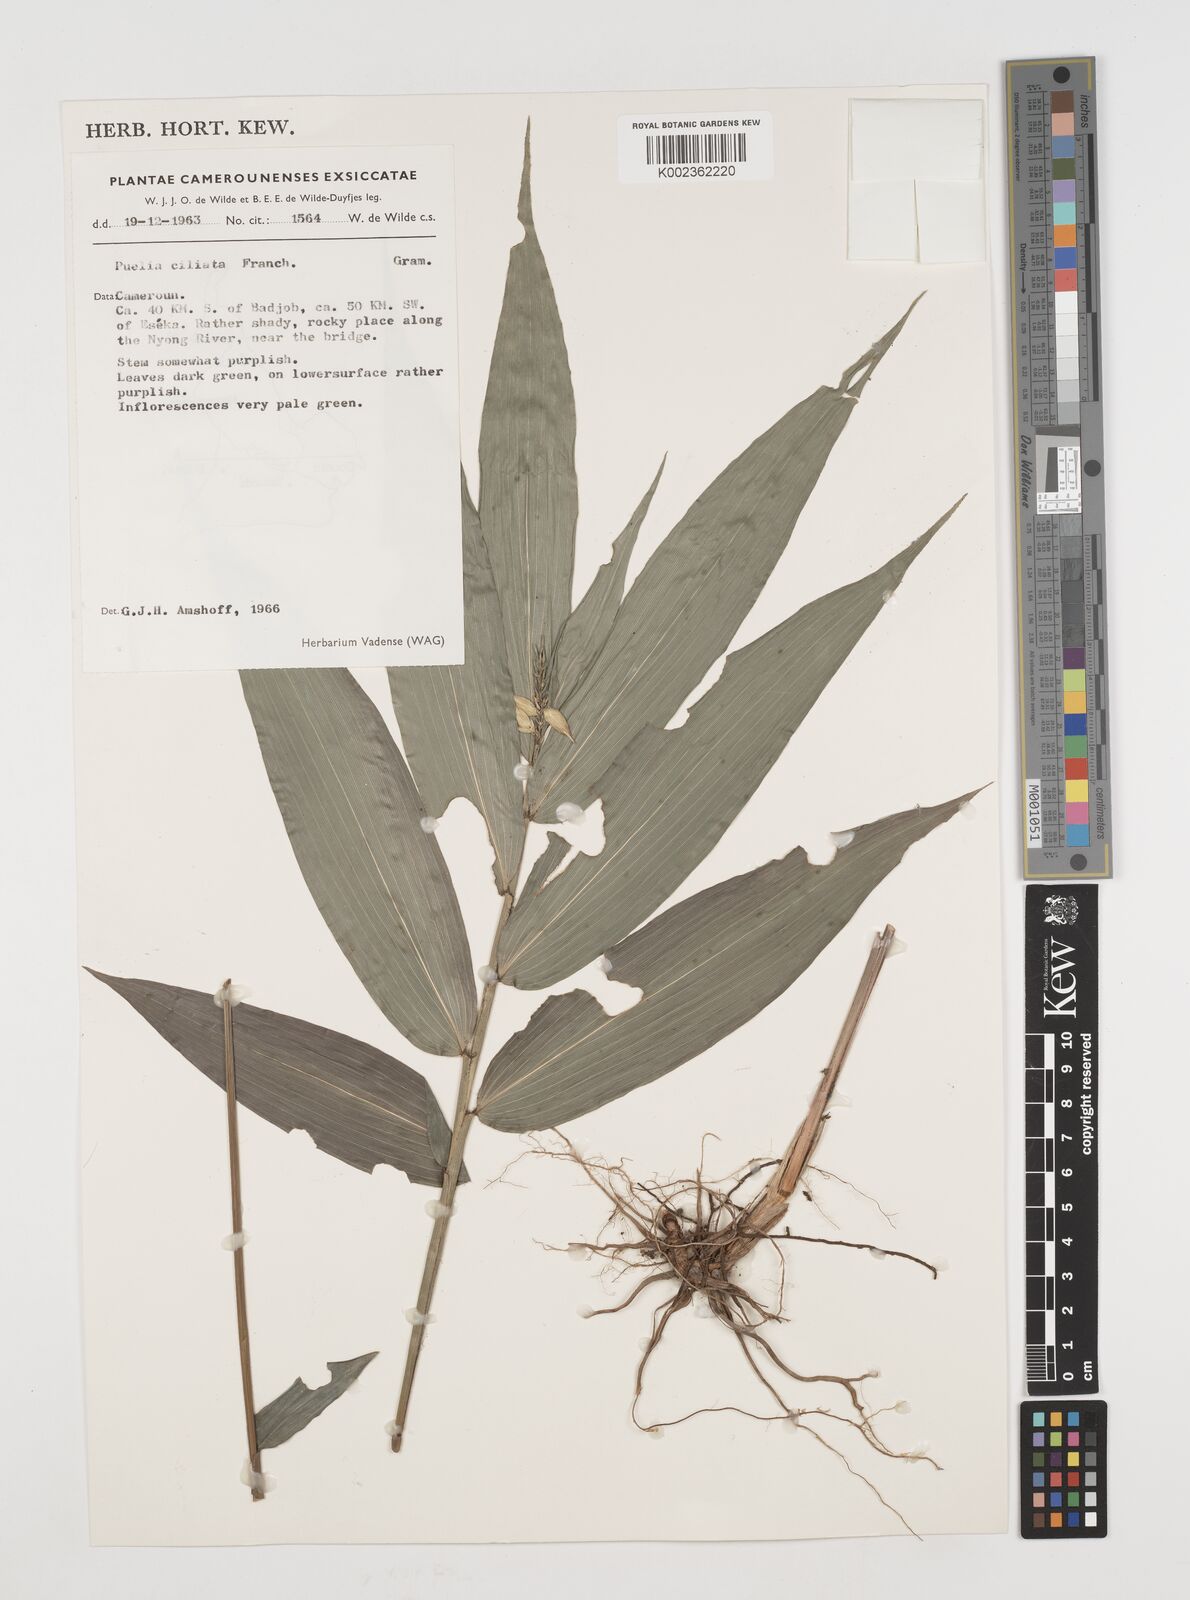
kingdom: Plantae
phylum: Tracheophyta
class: Liliopsida
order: Poales
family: Poaceae
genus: Puelia
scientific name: Puelia ciliata
